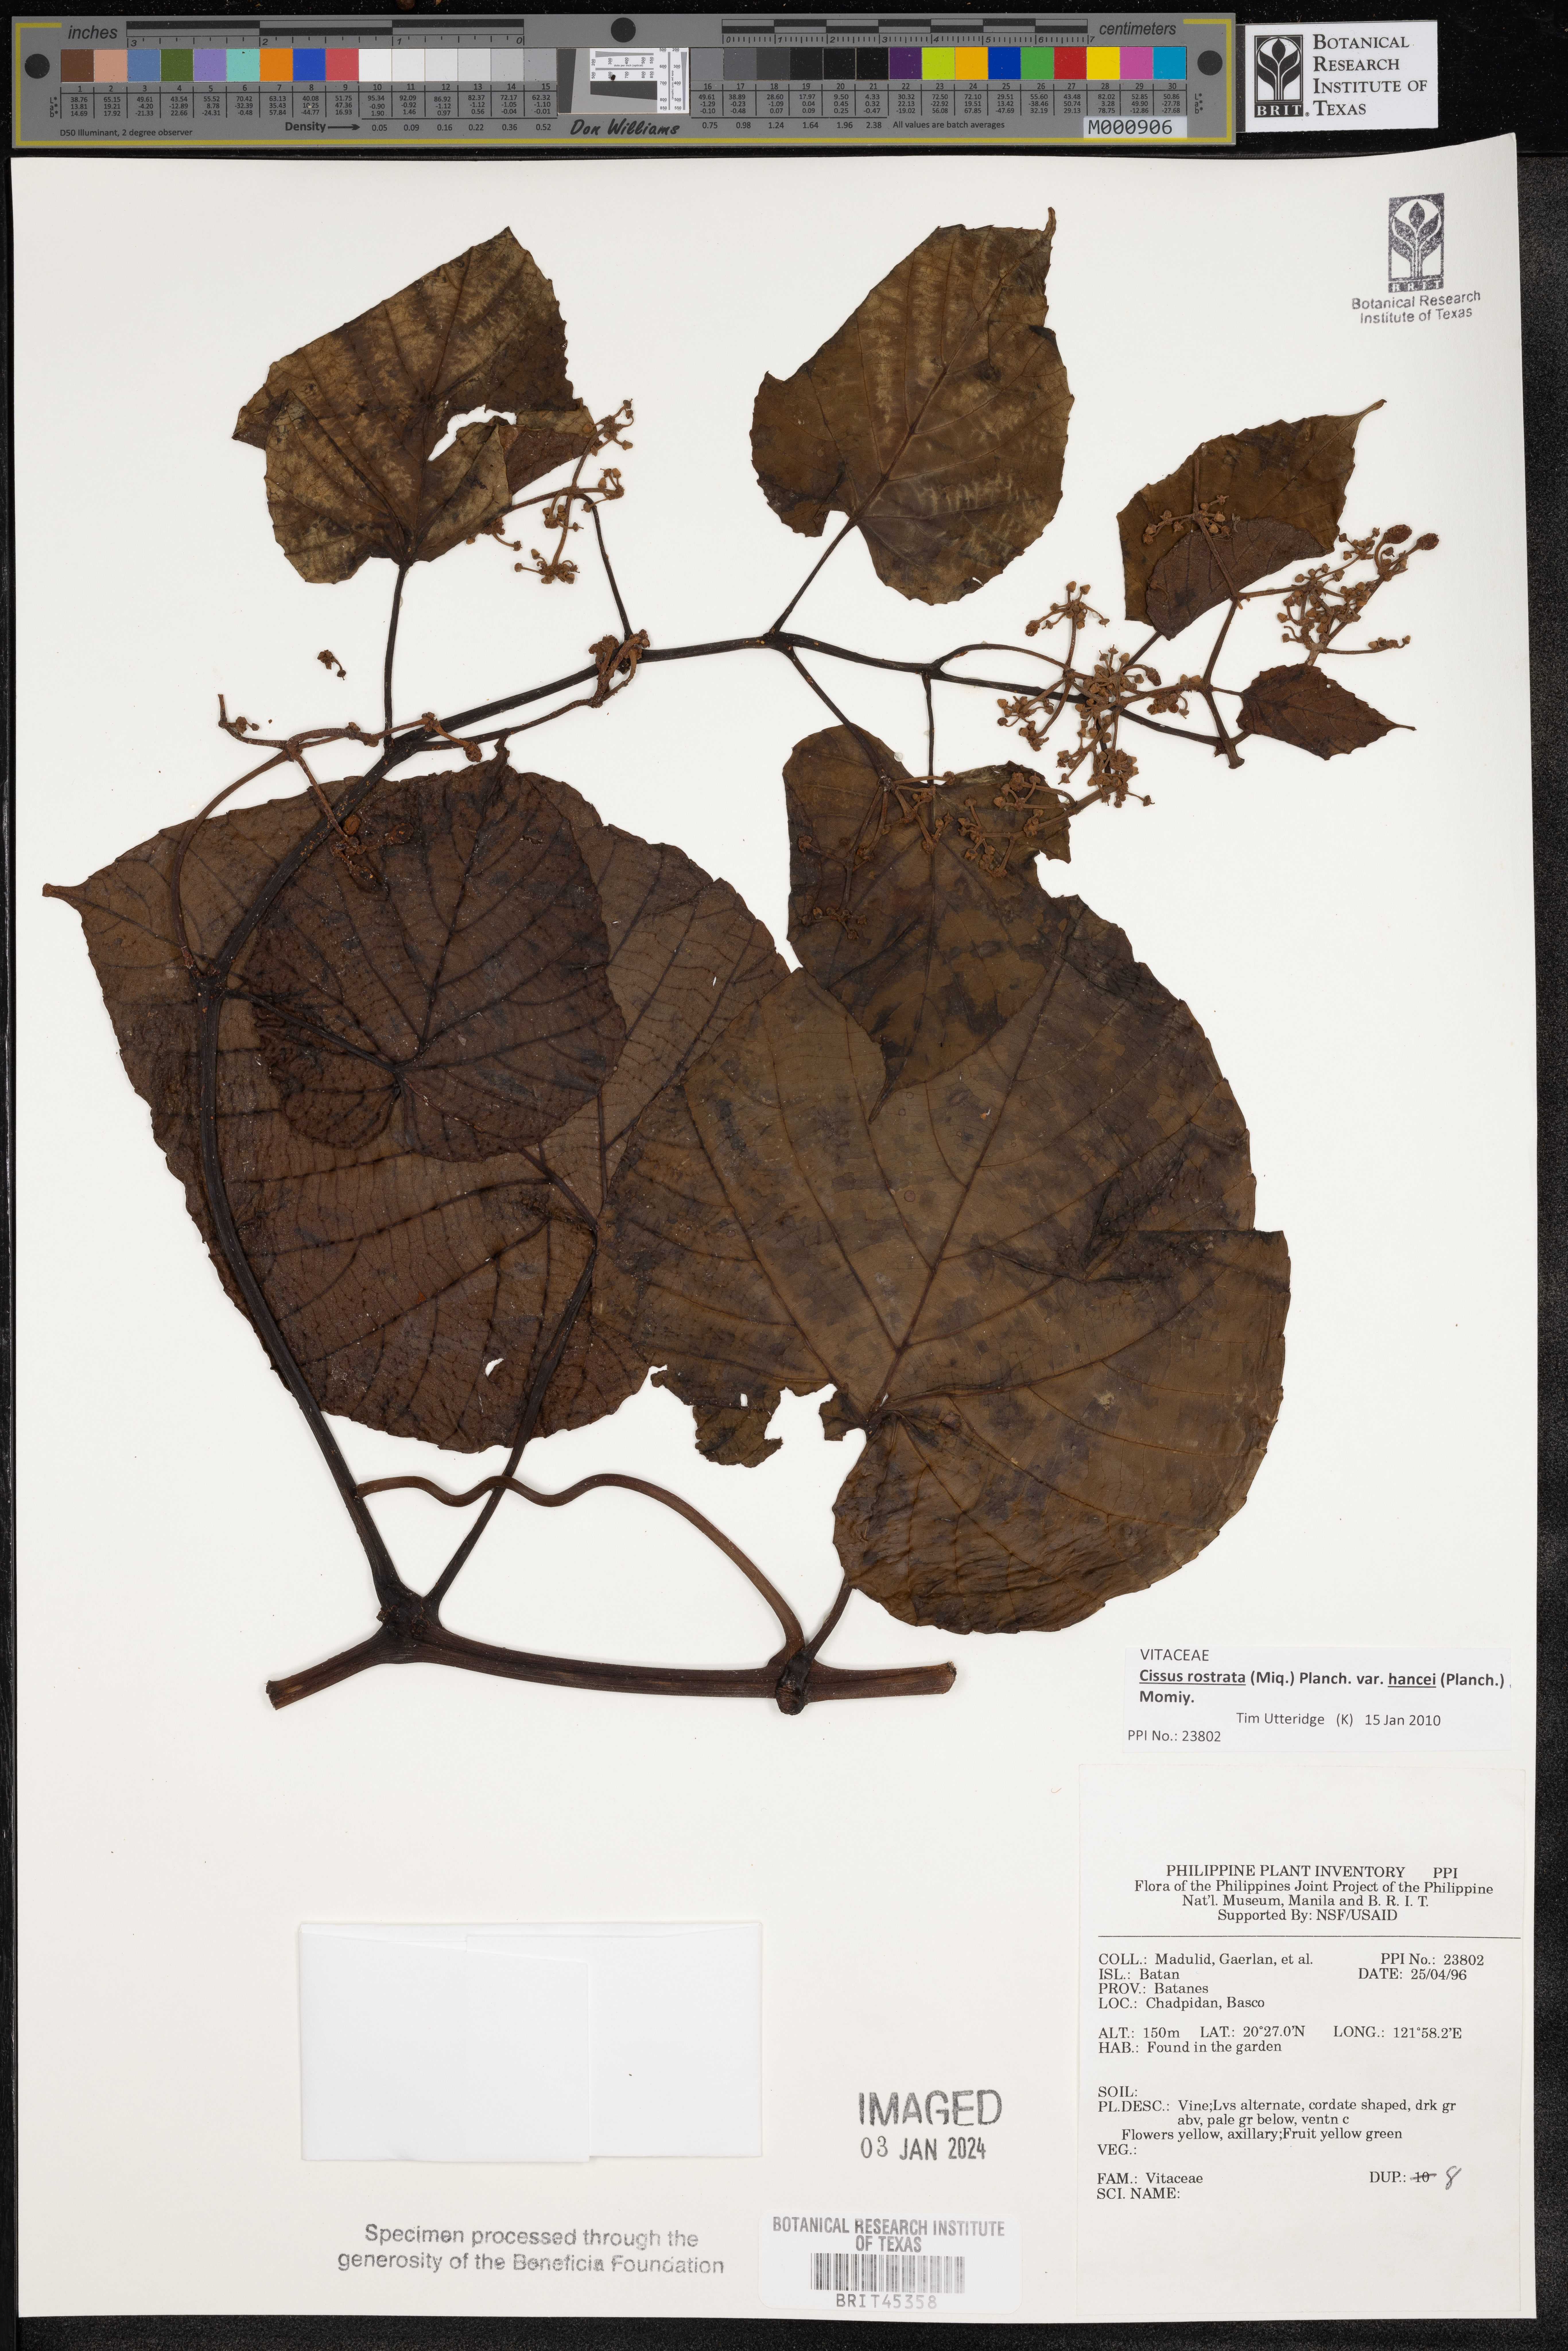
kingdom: Plantae
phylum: Tracheophyta
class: Magnoliopsida
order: Vitales
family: Vitaceae
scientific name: Vitaceae
